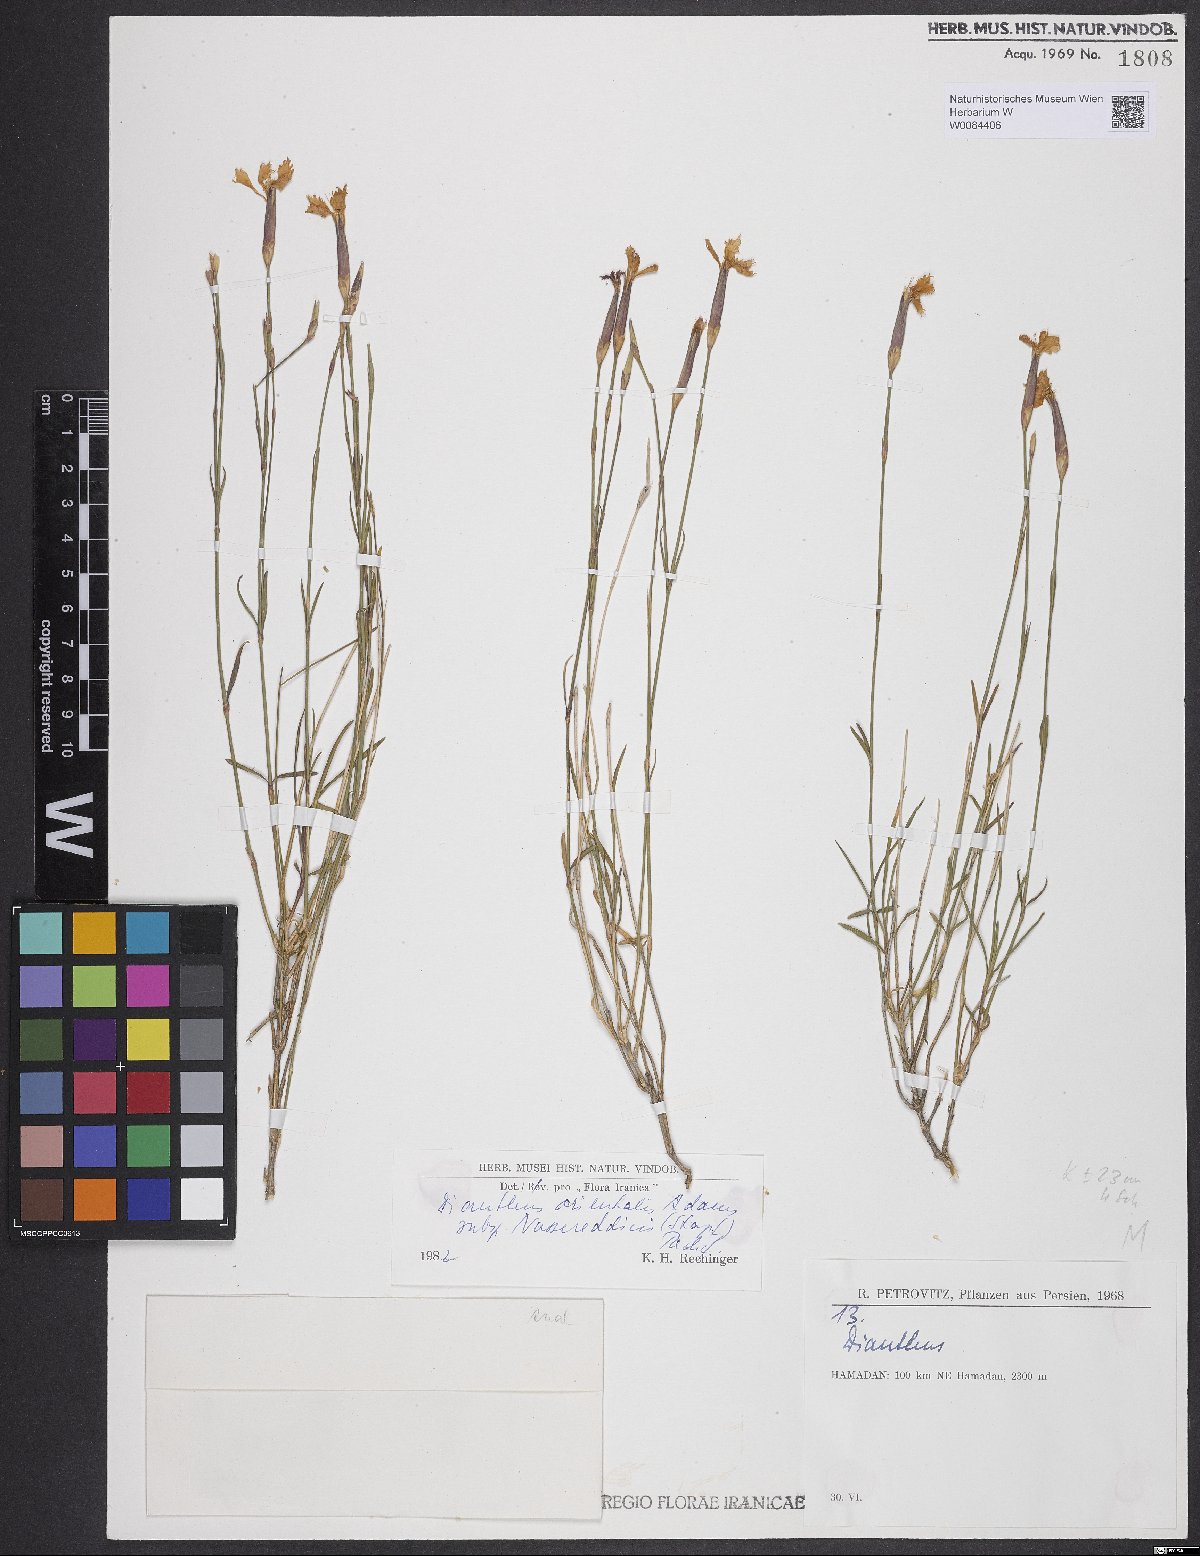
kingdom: Plantae
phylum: Tracheophyta
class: Magnoliopsida
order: Caryophyllales
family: Caryophyllaceae
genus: Dianthus
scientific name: Dianthus orientalis
